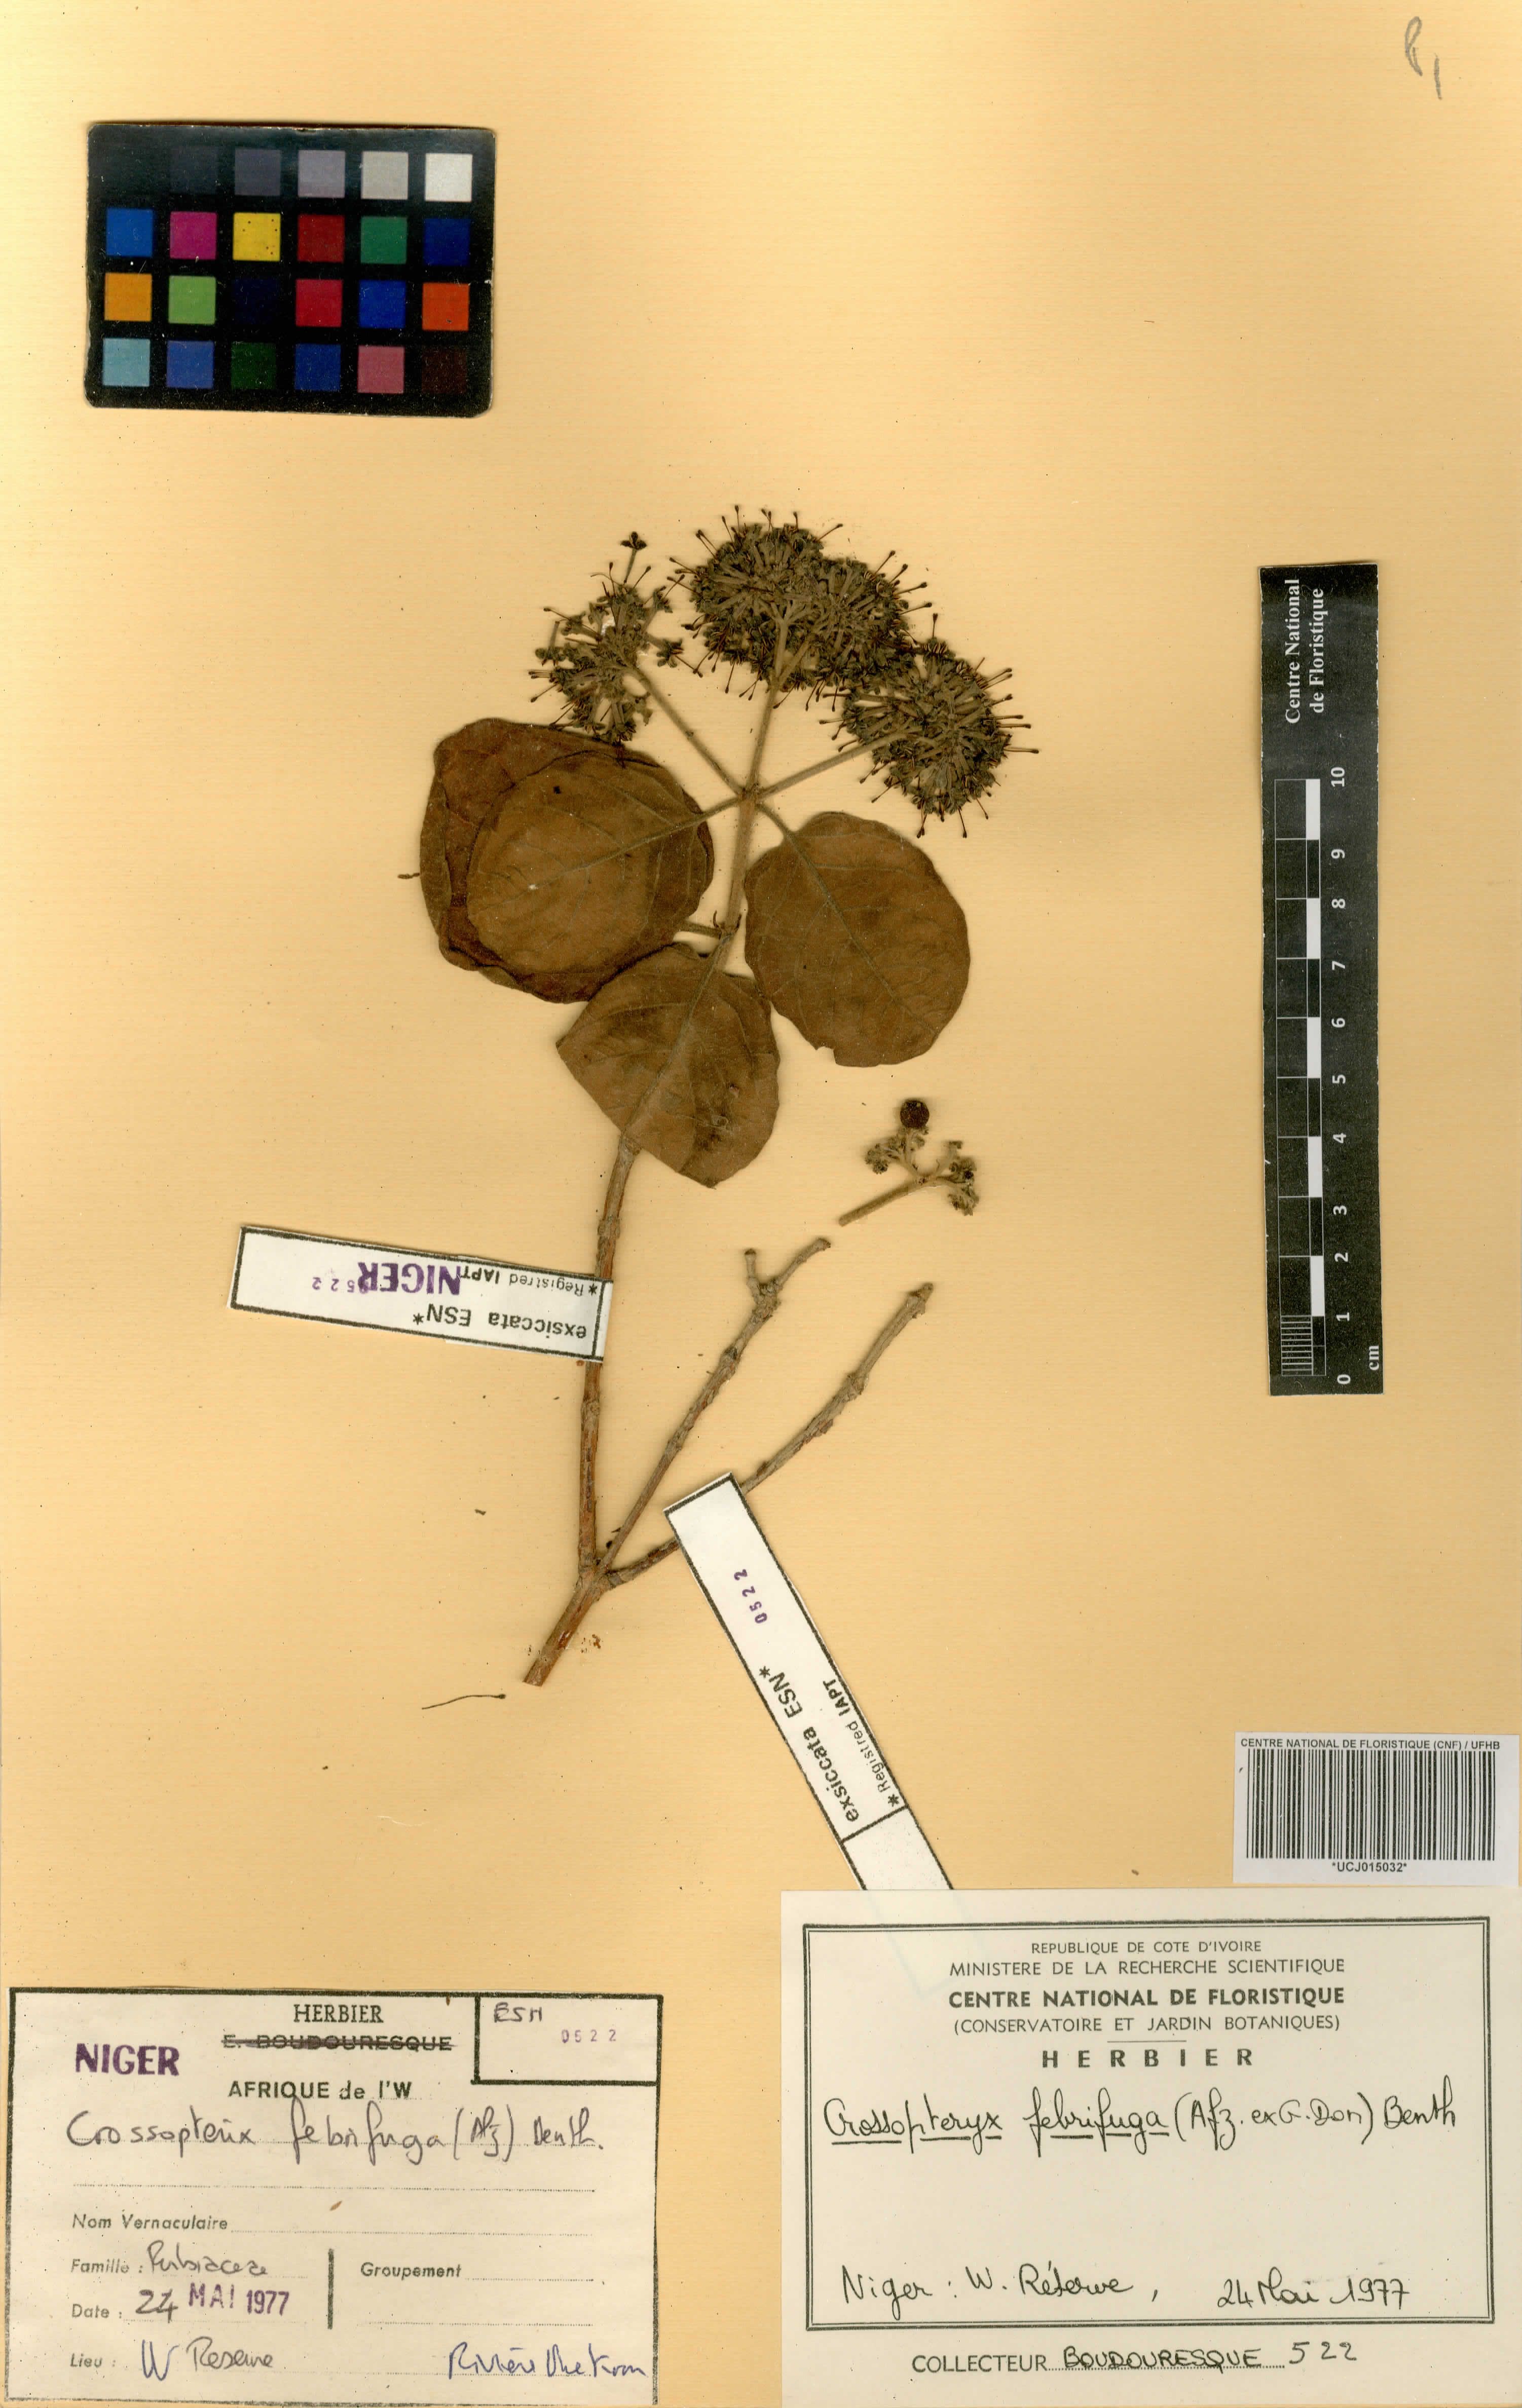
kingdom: Plantae
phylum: Tracheophyta
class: Magnoliopsida
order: Gentianales
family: Rubiaceae
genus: Crossopteryx
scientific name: Crossopteryx febrifuga
